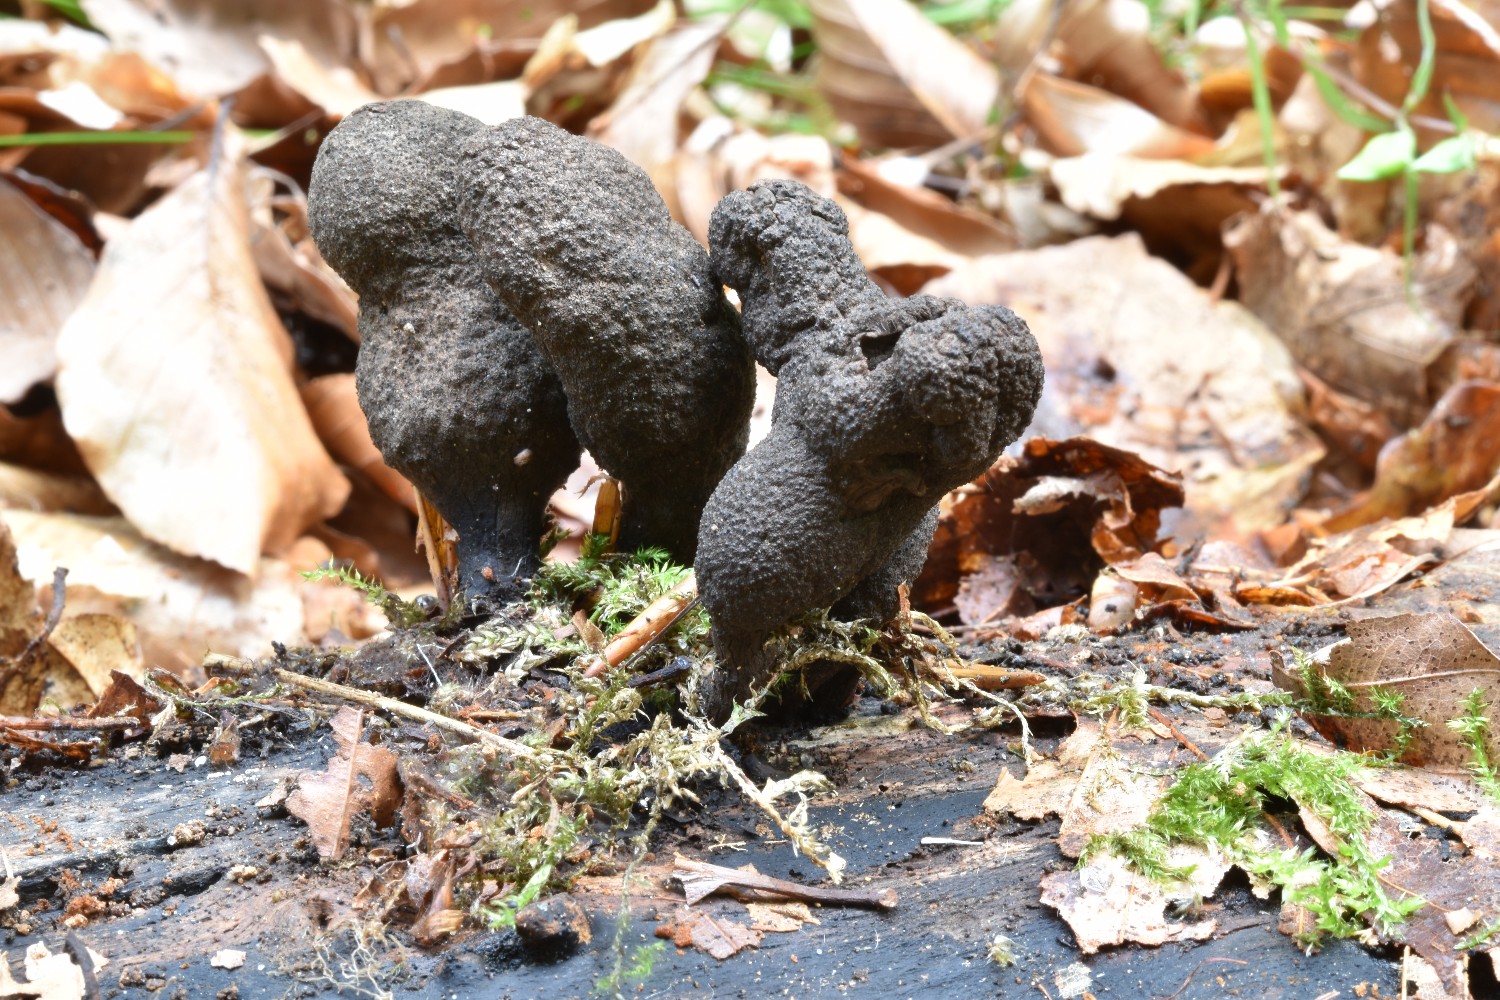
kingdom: Fungi
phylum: Ascomycota
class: Sordariomycetes
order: Xylariales
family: Xylariaceae
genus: Xylaria
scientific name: Xylaria polymorpha
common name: kølle-stødsvamp
